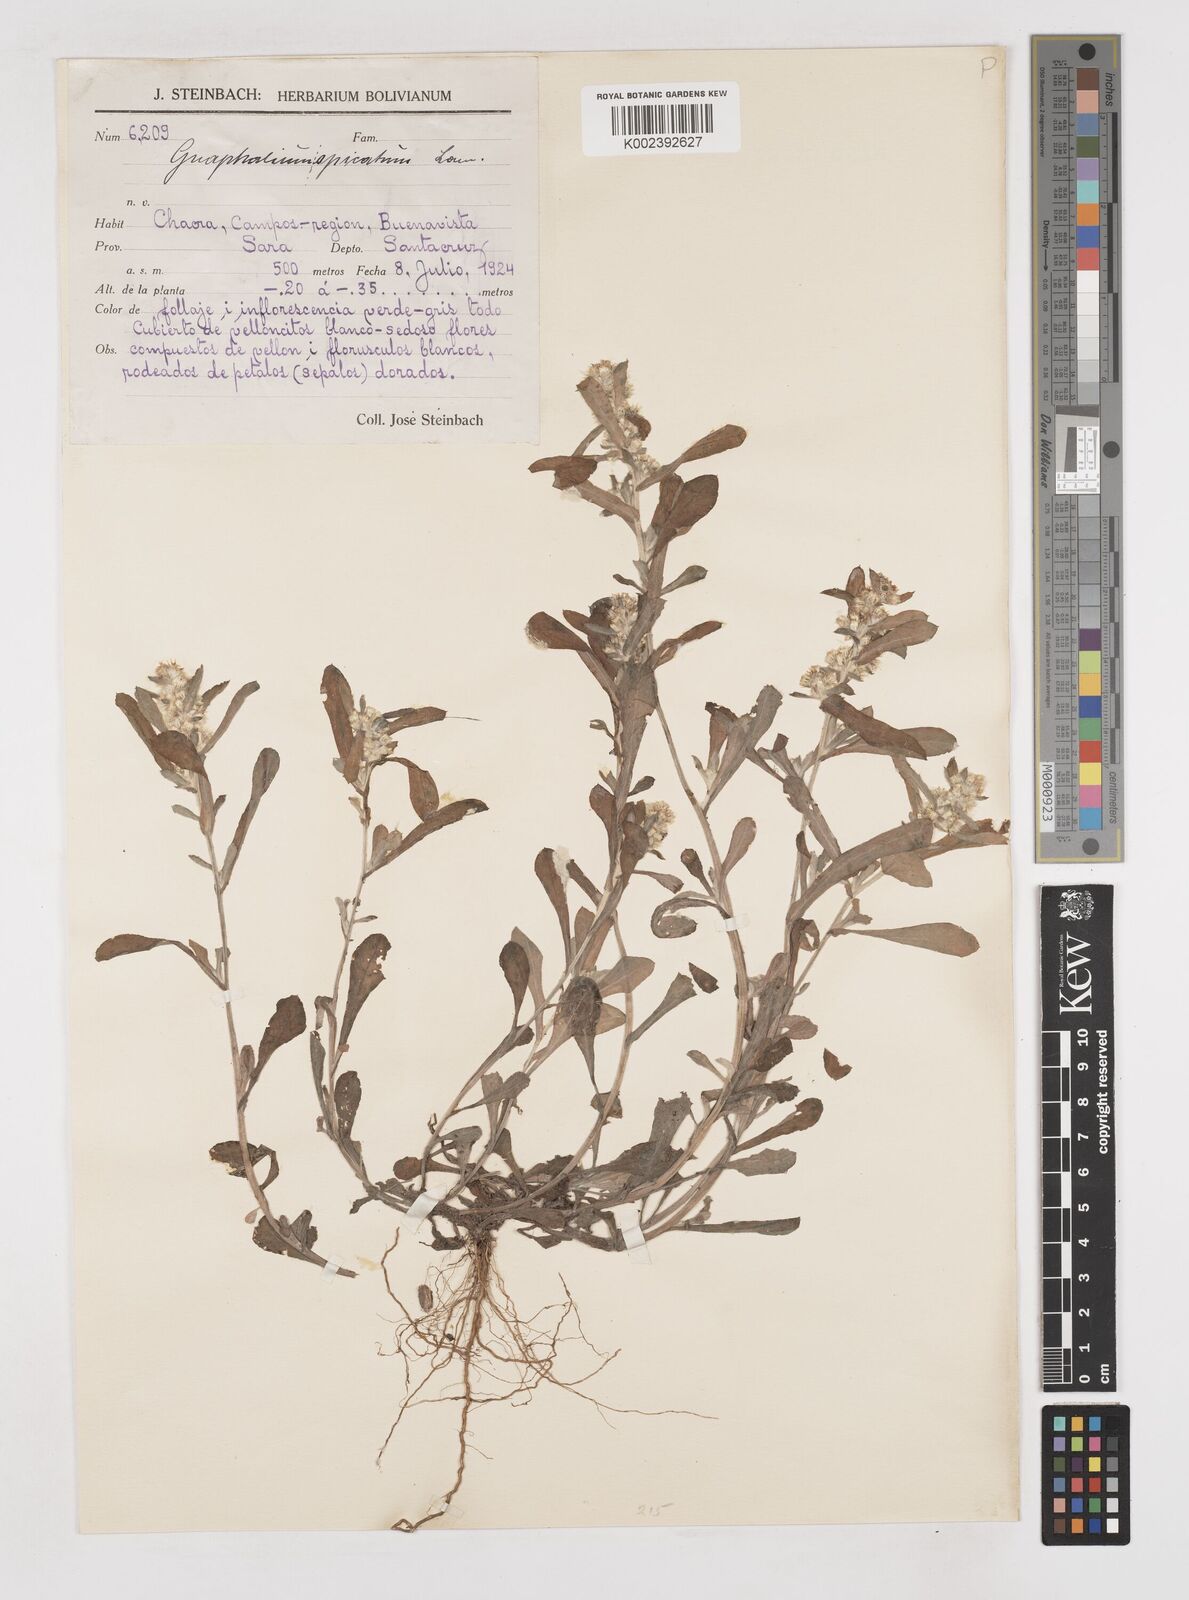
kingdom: Plantae
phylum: Tracheophyta
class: Magnoliopsida
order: Asterales
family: Asteraceae
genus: Gamochaeta
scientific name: Gamochaeta americana
